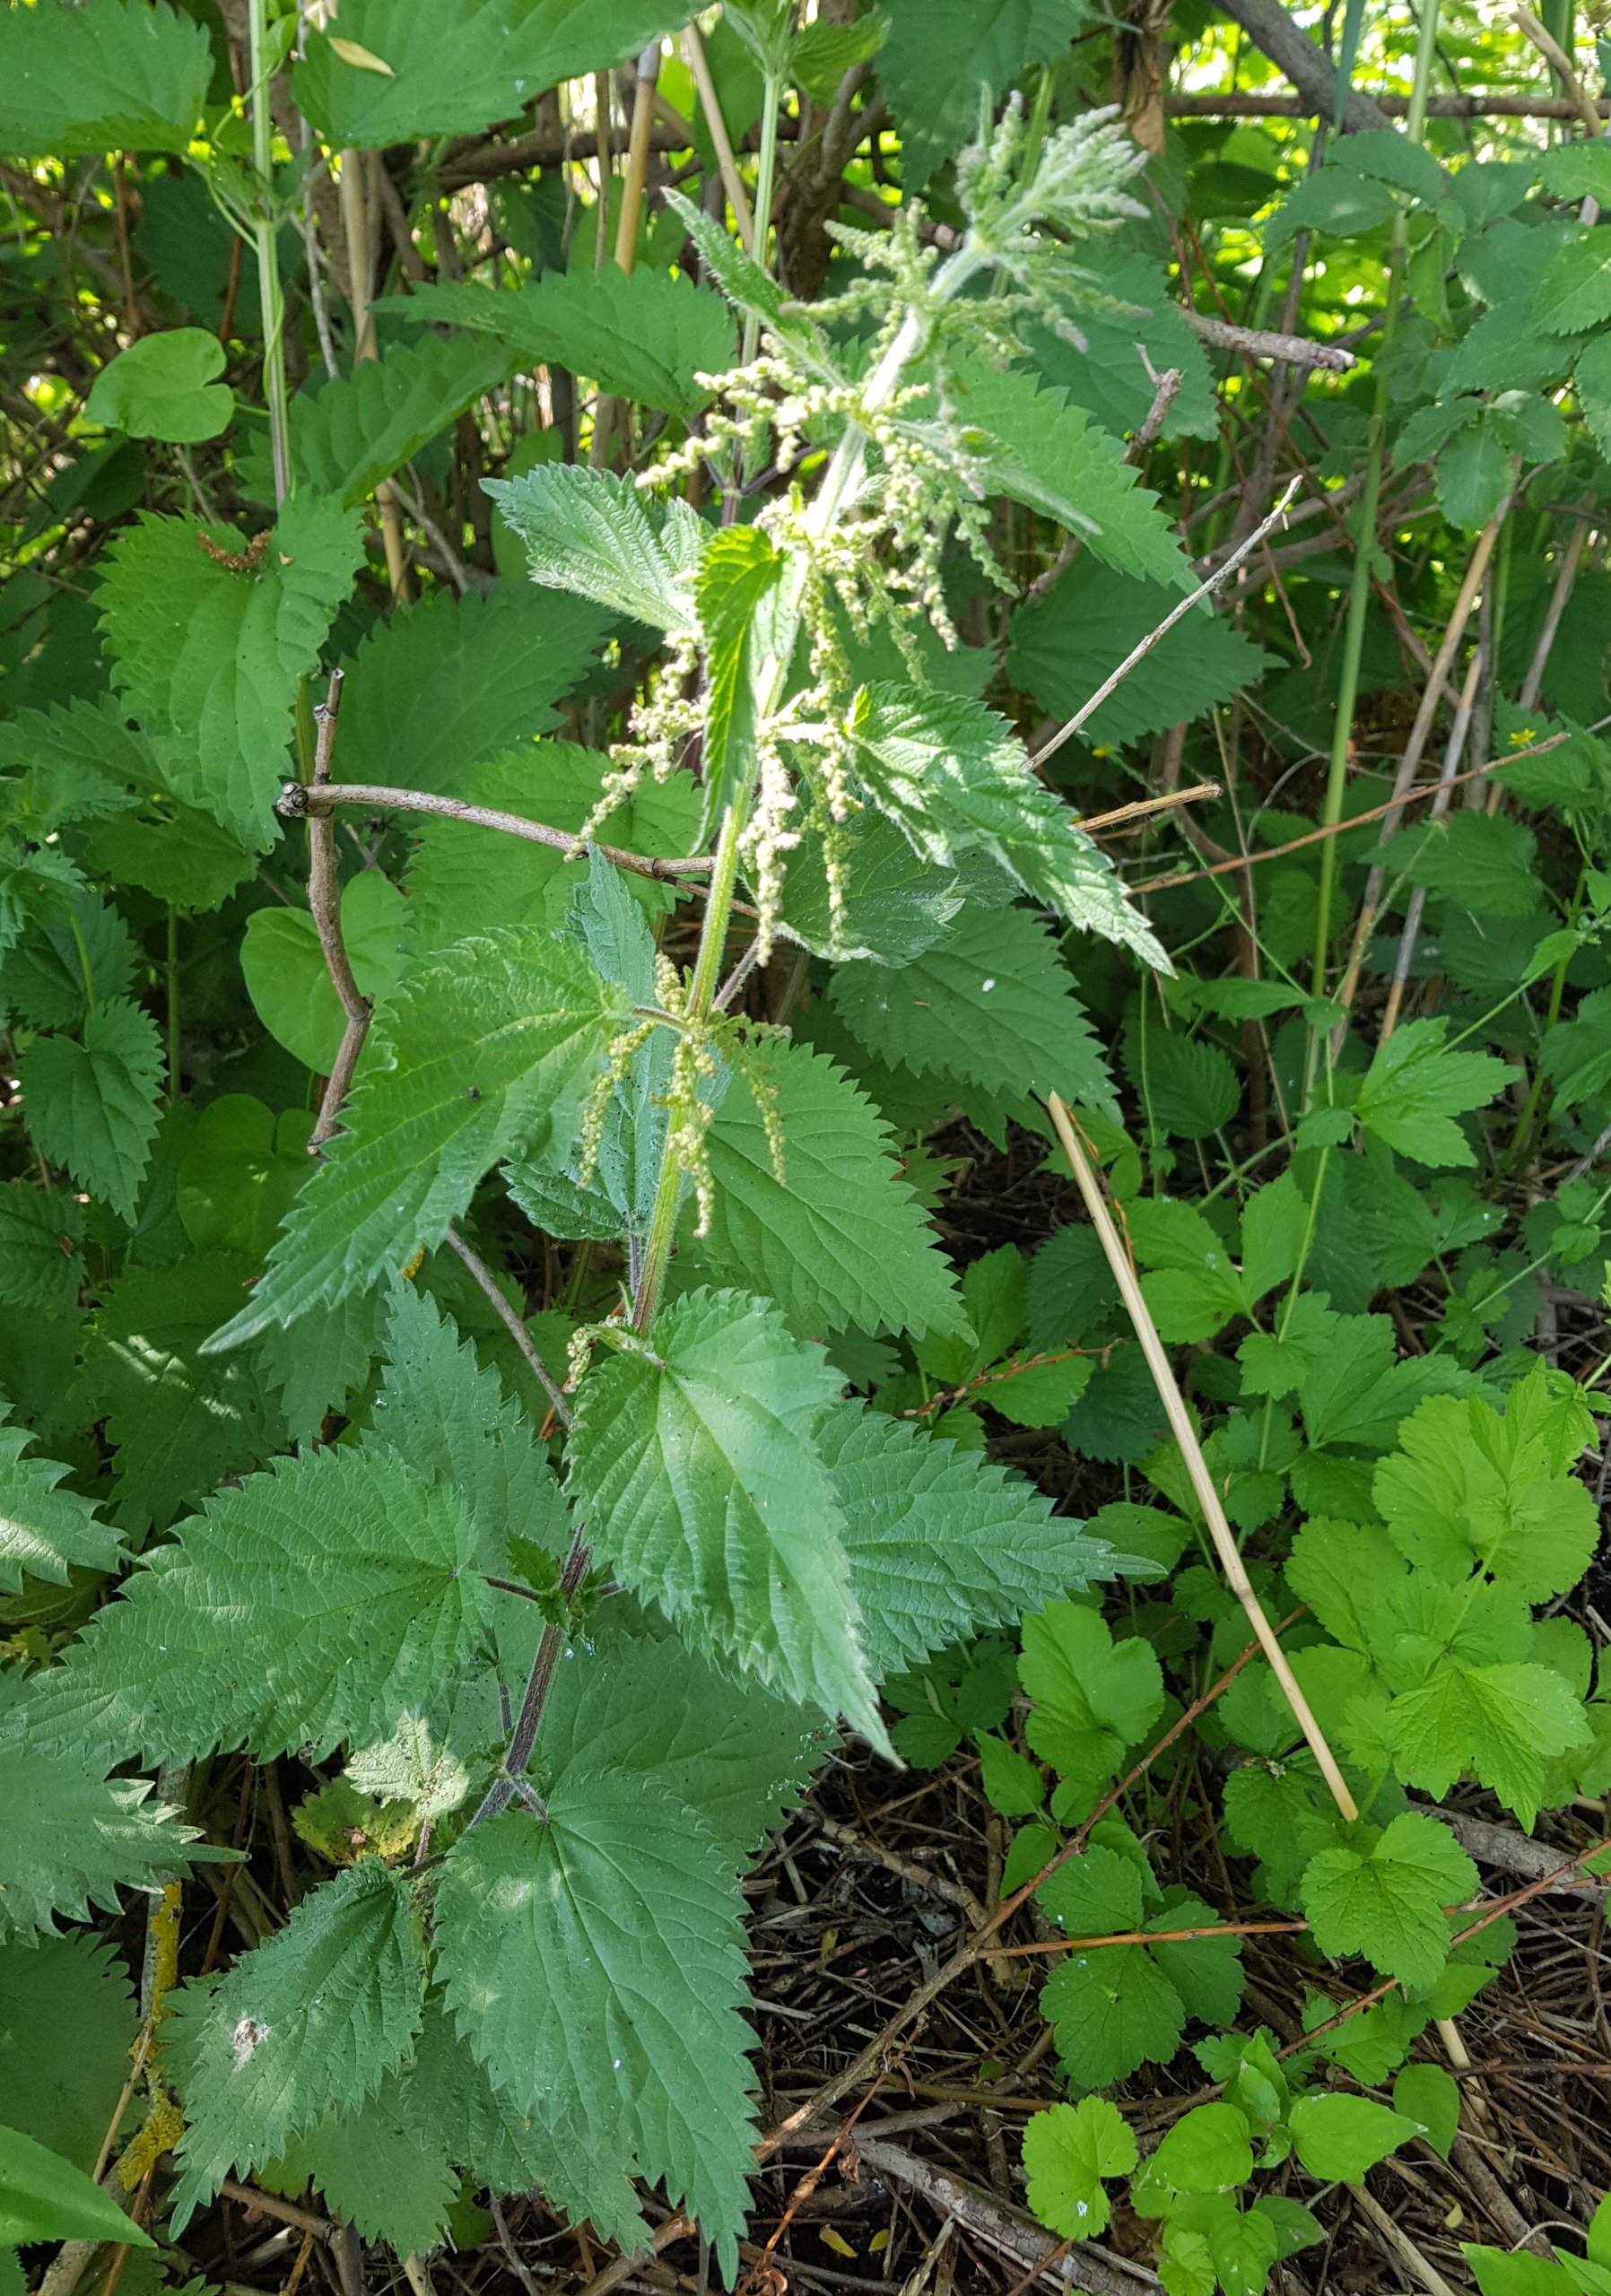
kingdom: Plantae
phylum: Tracheophyta
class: Magnoliopsida
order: Rosales
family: Urticaceae
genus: Urtica
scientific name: Urtica dioica
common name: Stor nælde
